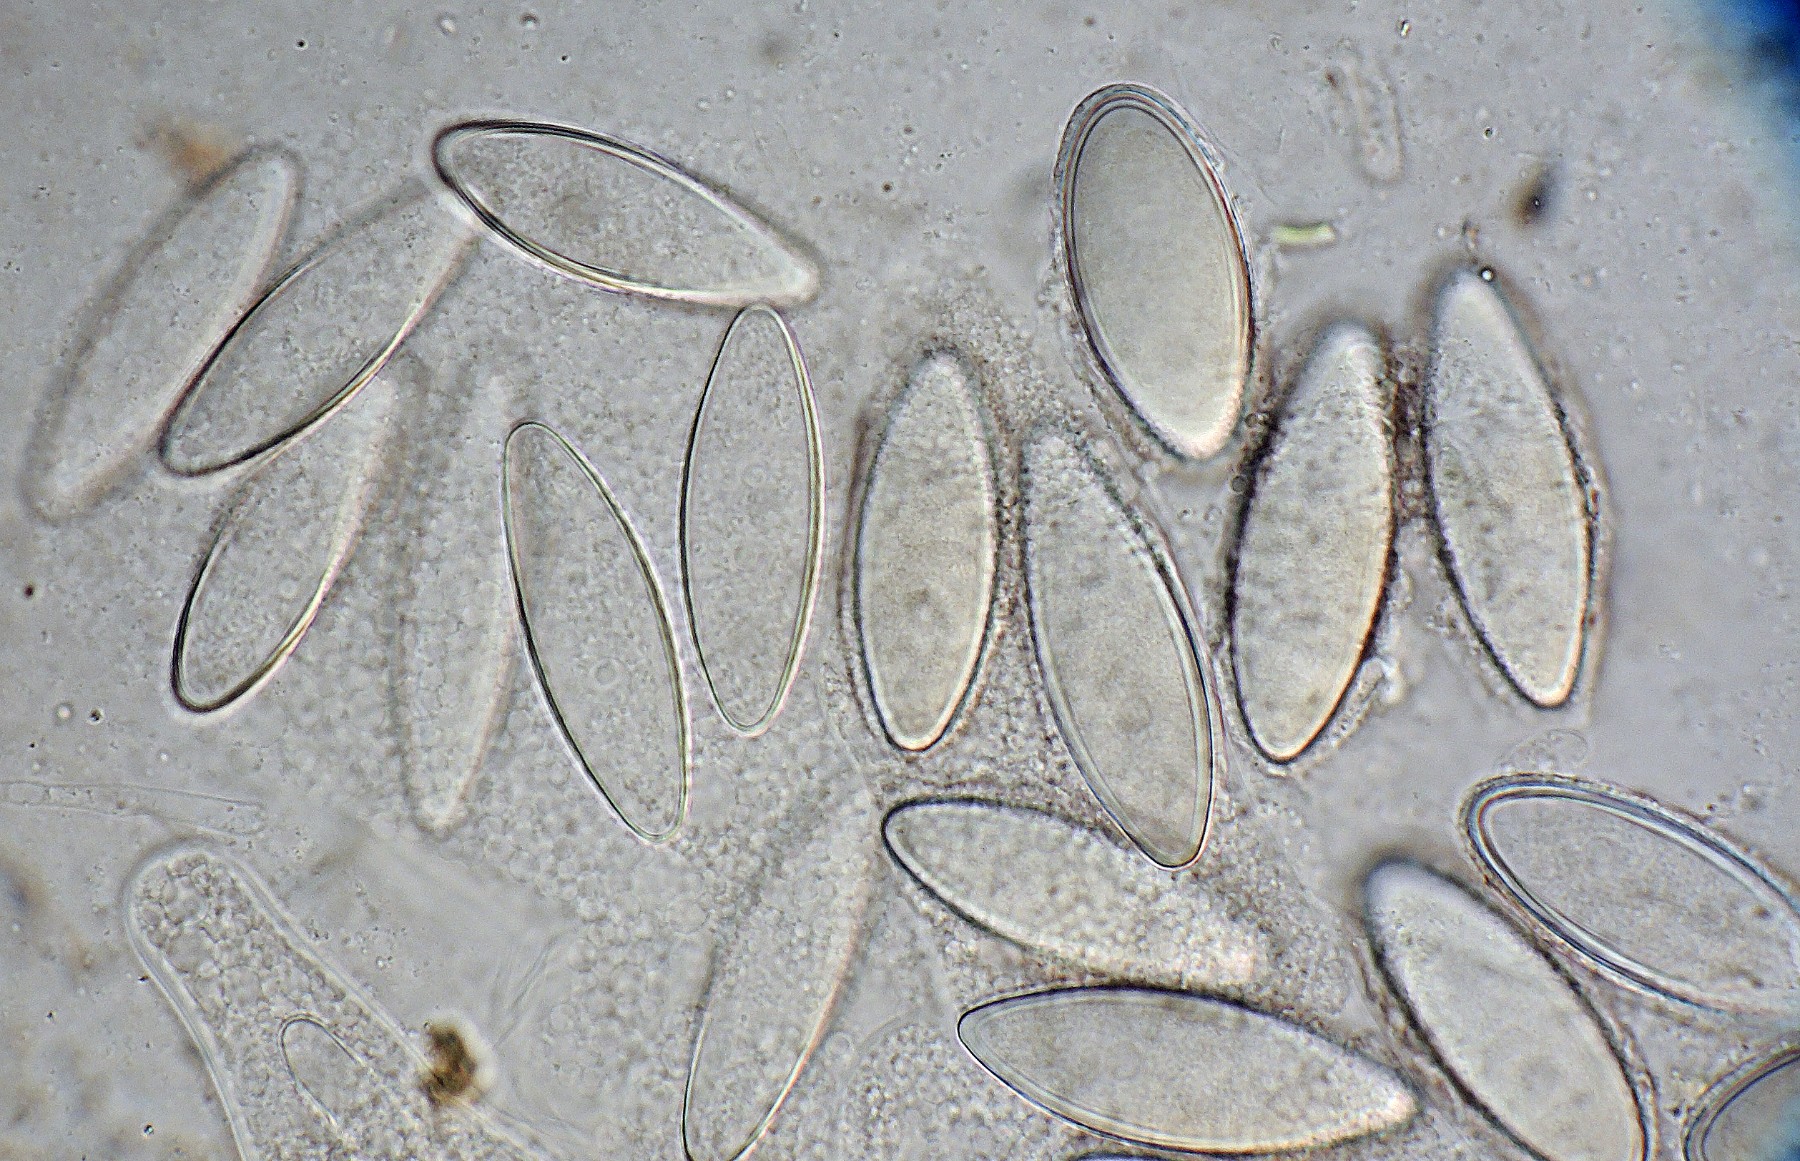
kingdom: Fungi
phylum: Ascomycota
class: Sordariomycetes
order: Hypocreales
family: Bionectriaceae
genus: Selinia
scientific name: Selinia pulchra
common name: gødnings-gyldenkerne
